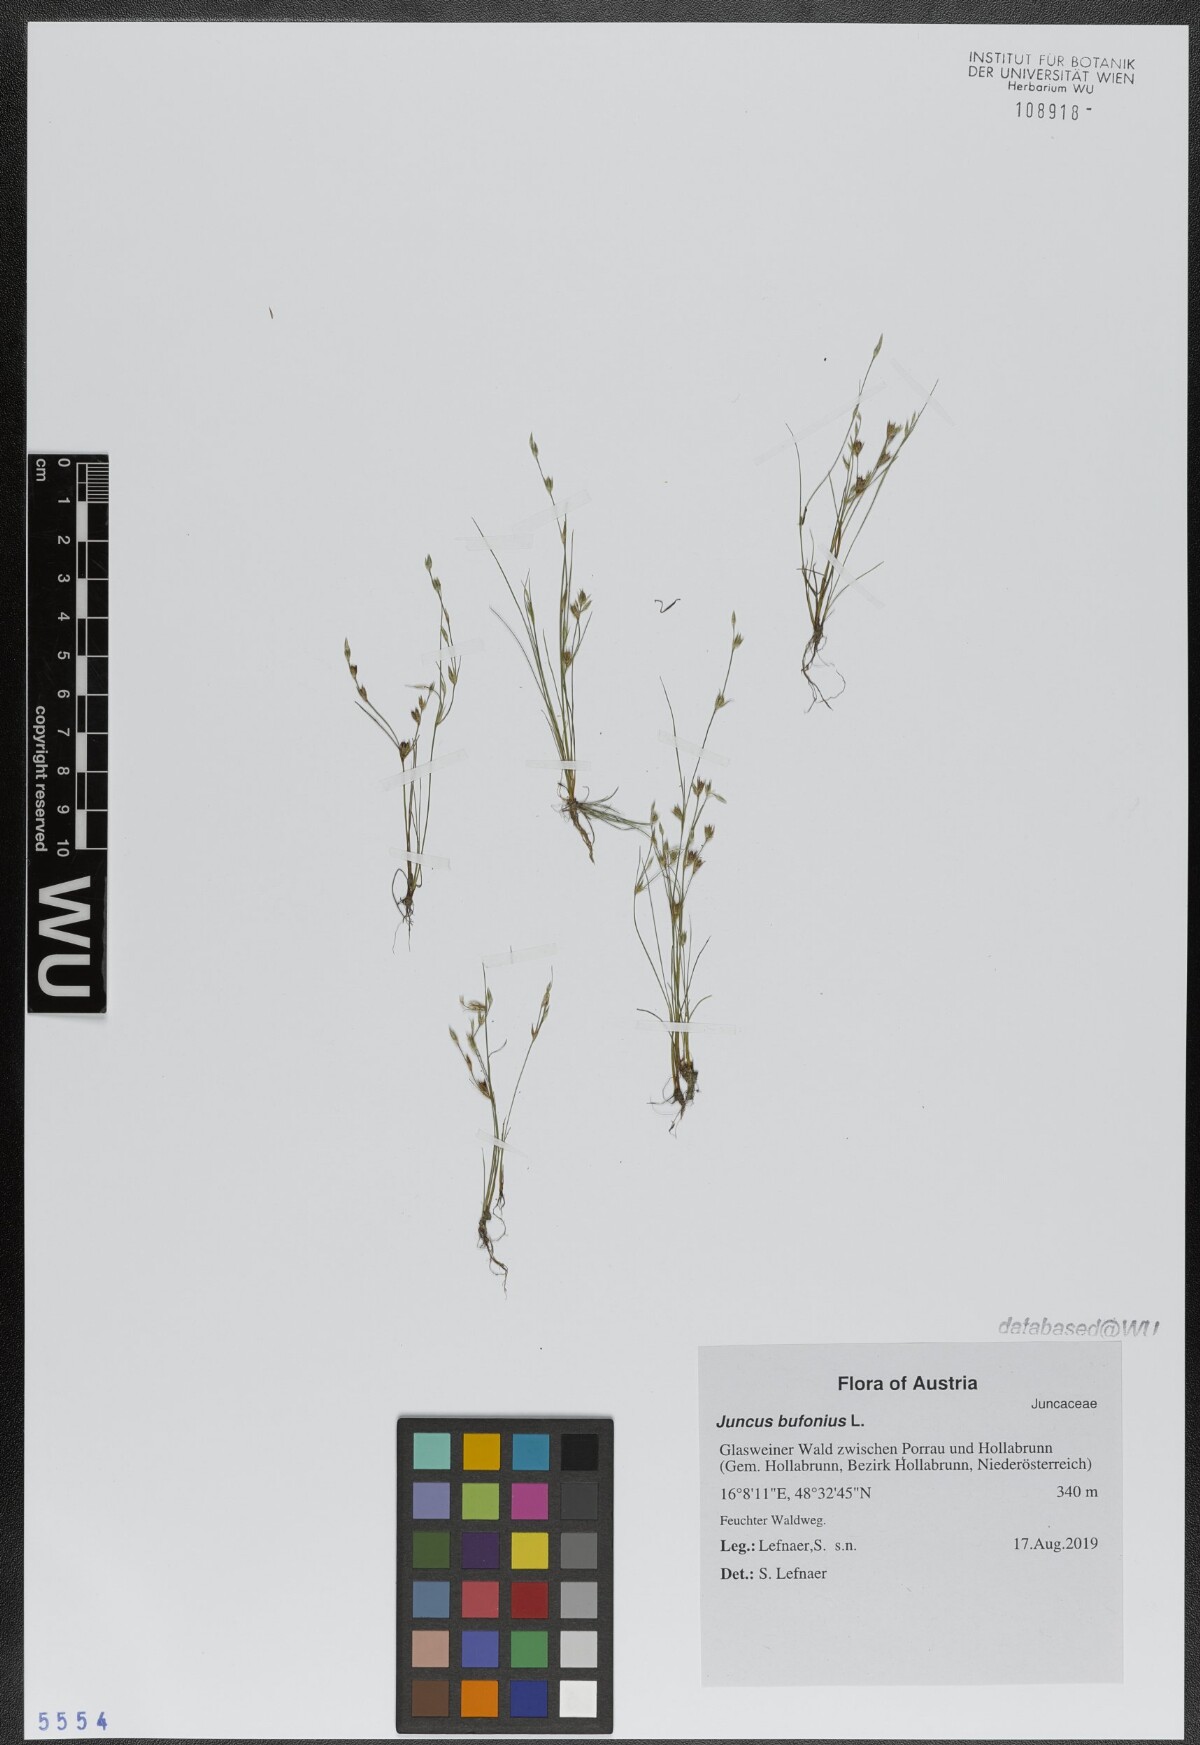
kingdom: Plantae
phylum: Tracheophyta
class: Liliopsida
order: Poales
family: Juncaceae
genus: Juncus
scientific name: Juncus bufonius
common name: Toad rush
